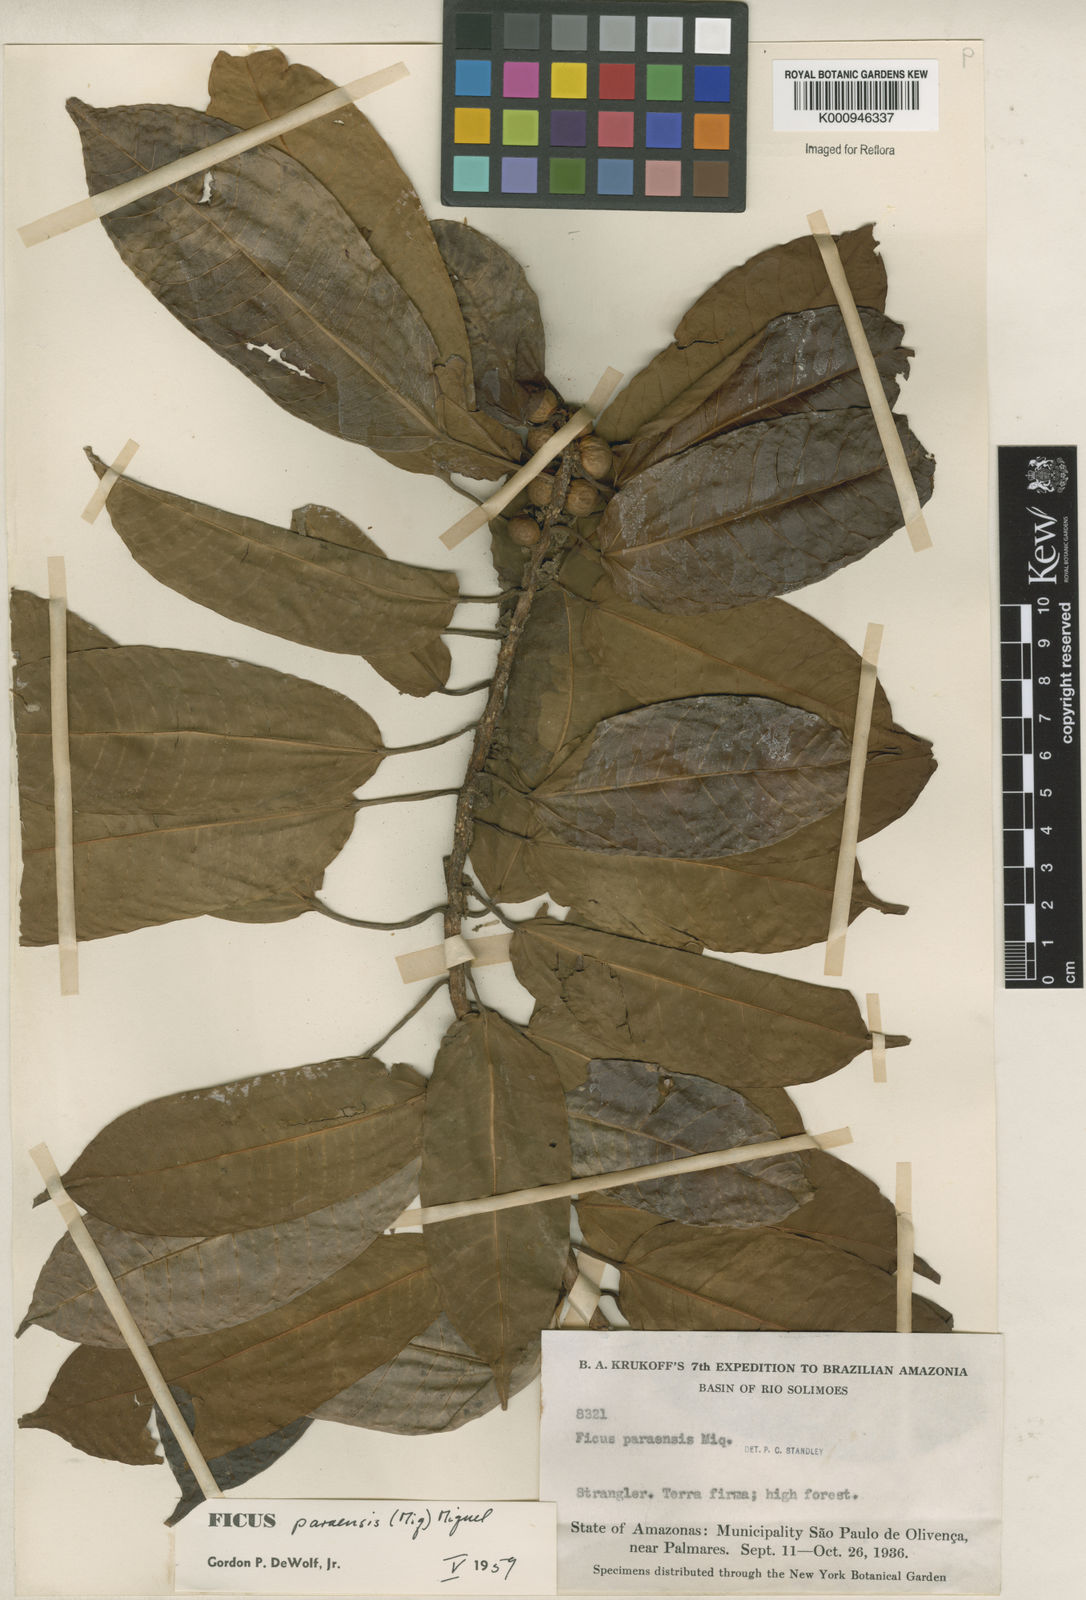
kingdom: Plantae
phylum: Tracheophyta
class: Magnoliopsida
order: Rosales
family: Moraceae
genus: Ficus
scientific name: Ficus paraensis
